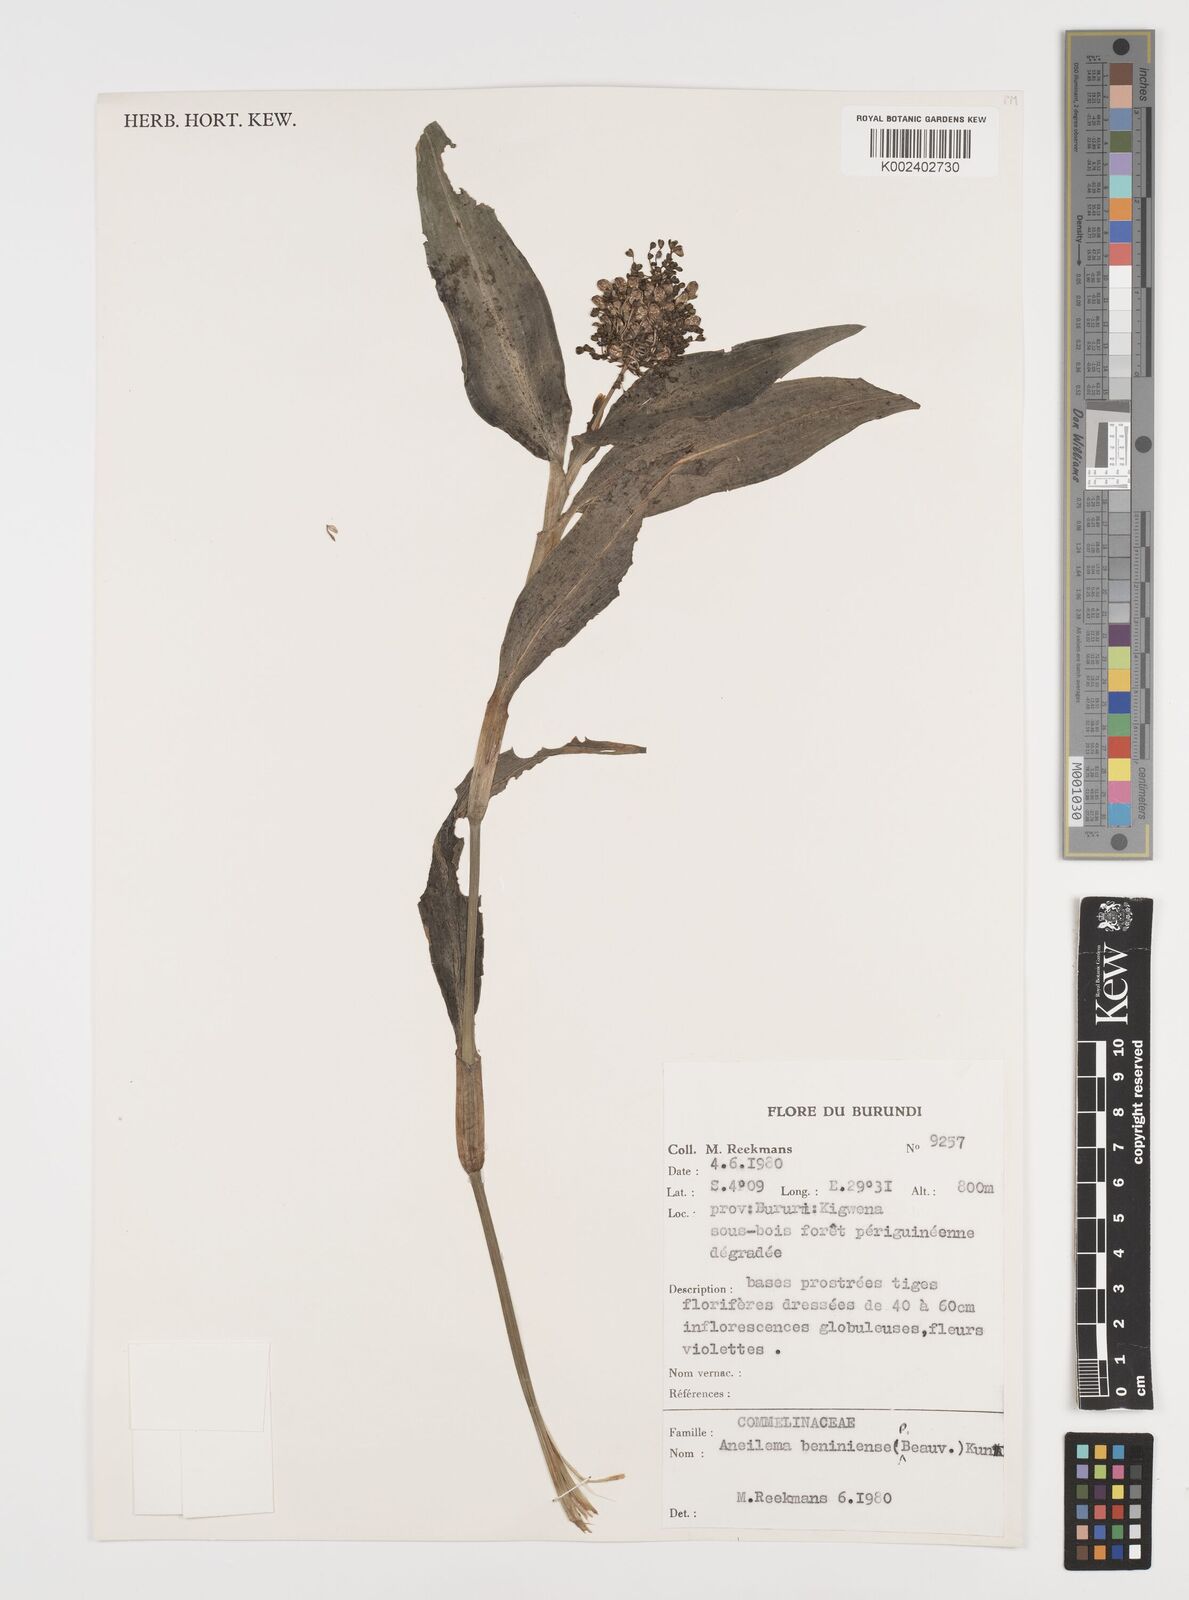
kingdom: Plantae
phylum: Tracheophyta
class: Liliopsida
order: Commelinales
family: Commelinaceae
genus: Aneilema
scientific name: Aneilema beniniense
